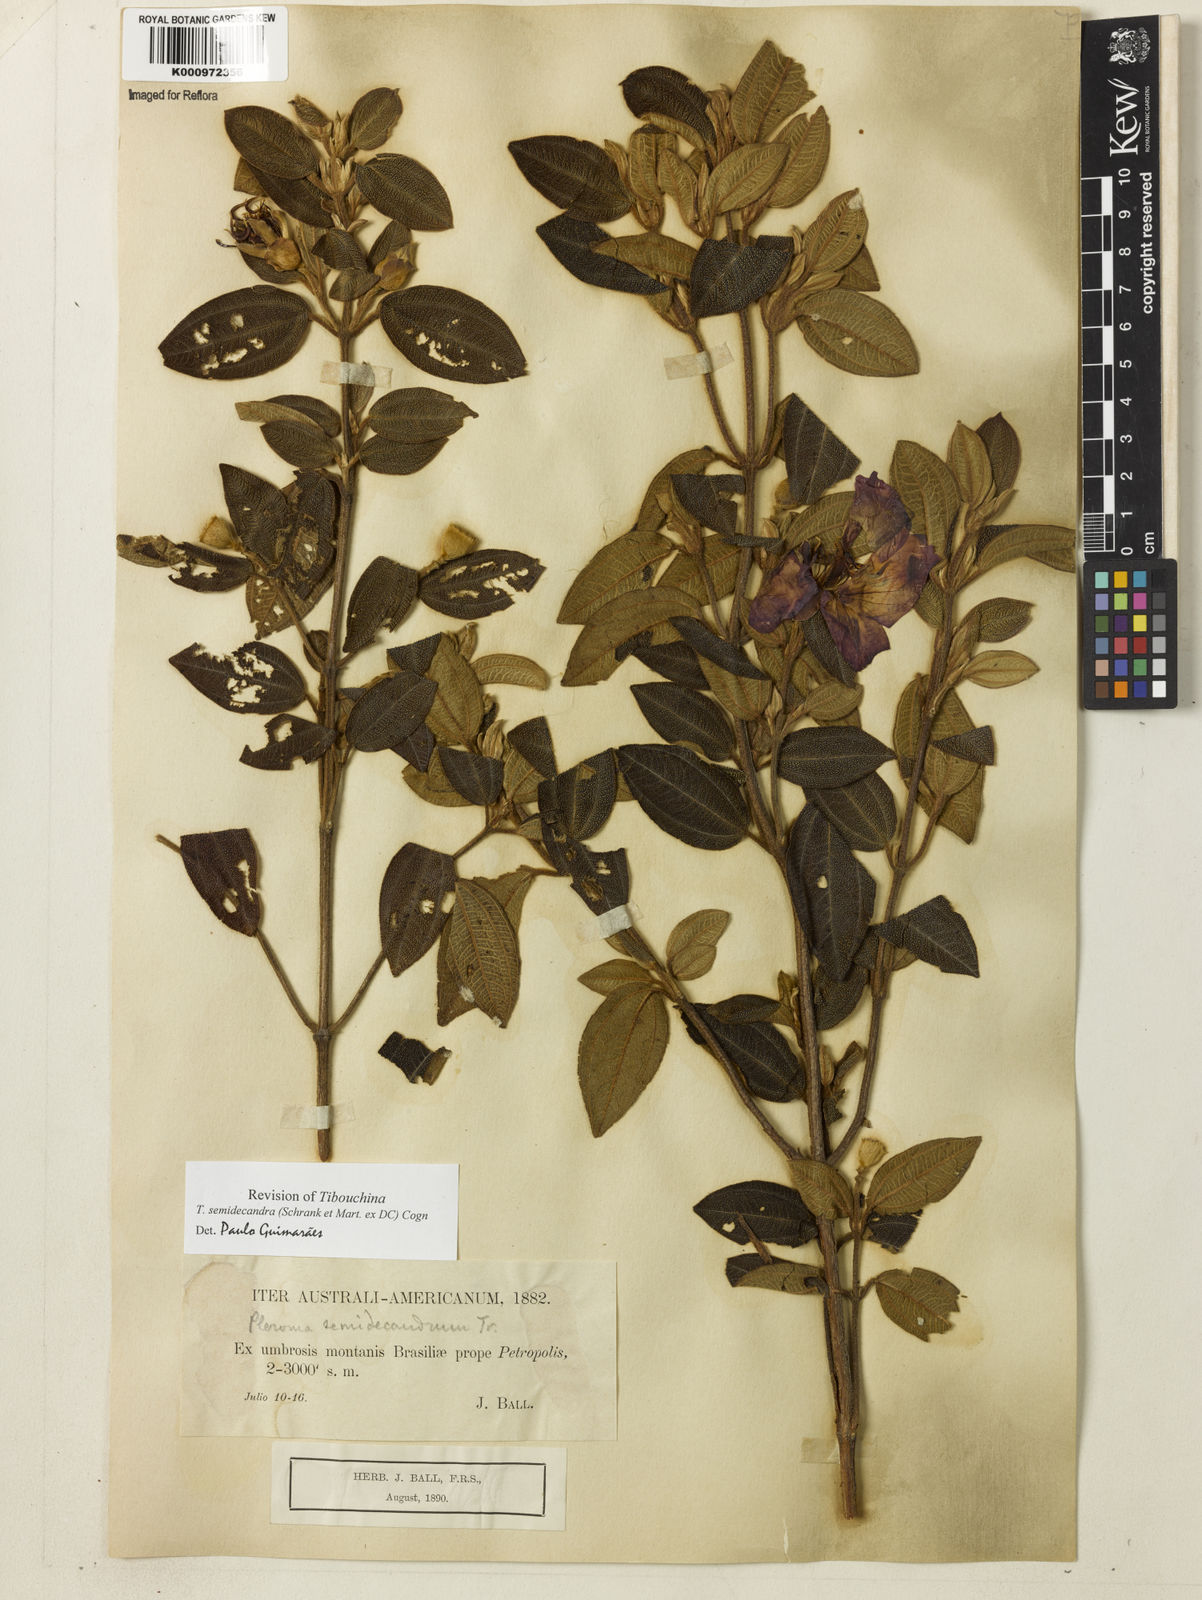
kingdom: Plantae
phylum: Tracheophyta
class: Magnoliopsida
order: Myrtales
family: Melastomataceae
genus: Pleroma
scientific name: Pleroma semidecandrum
